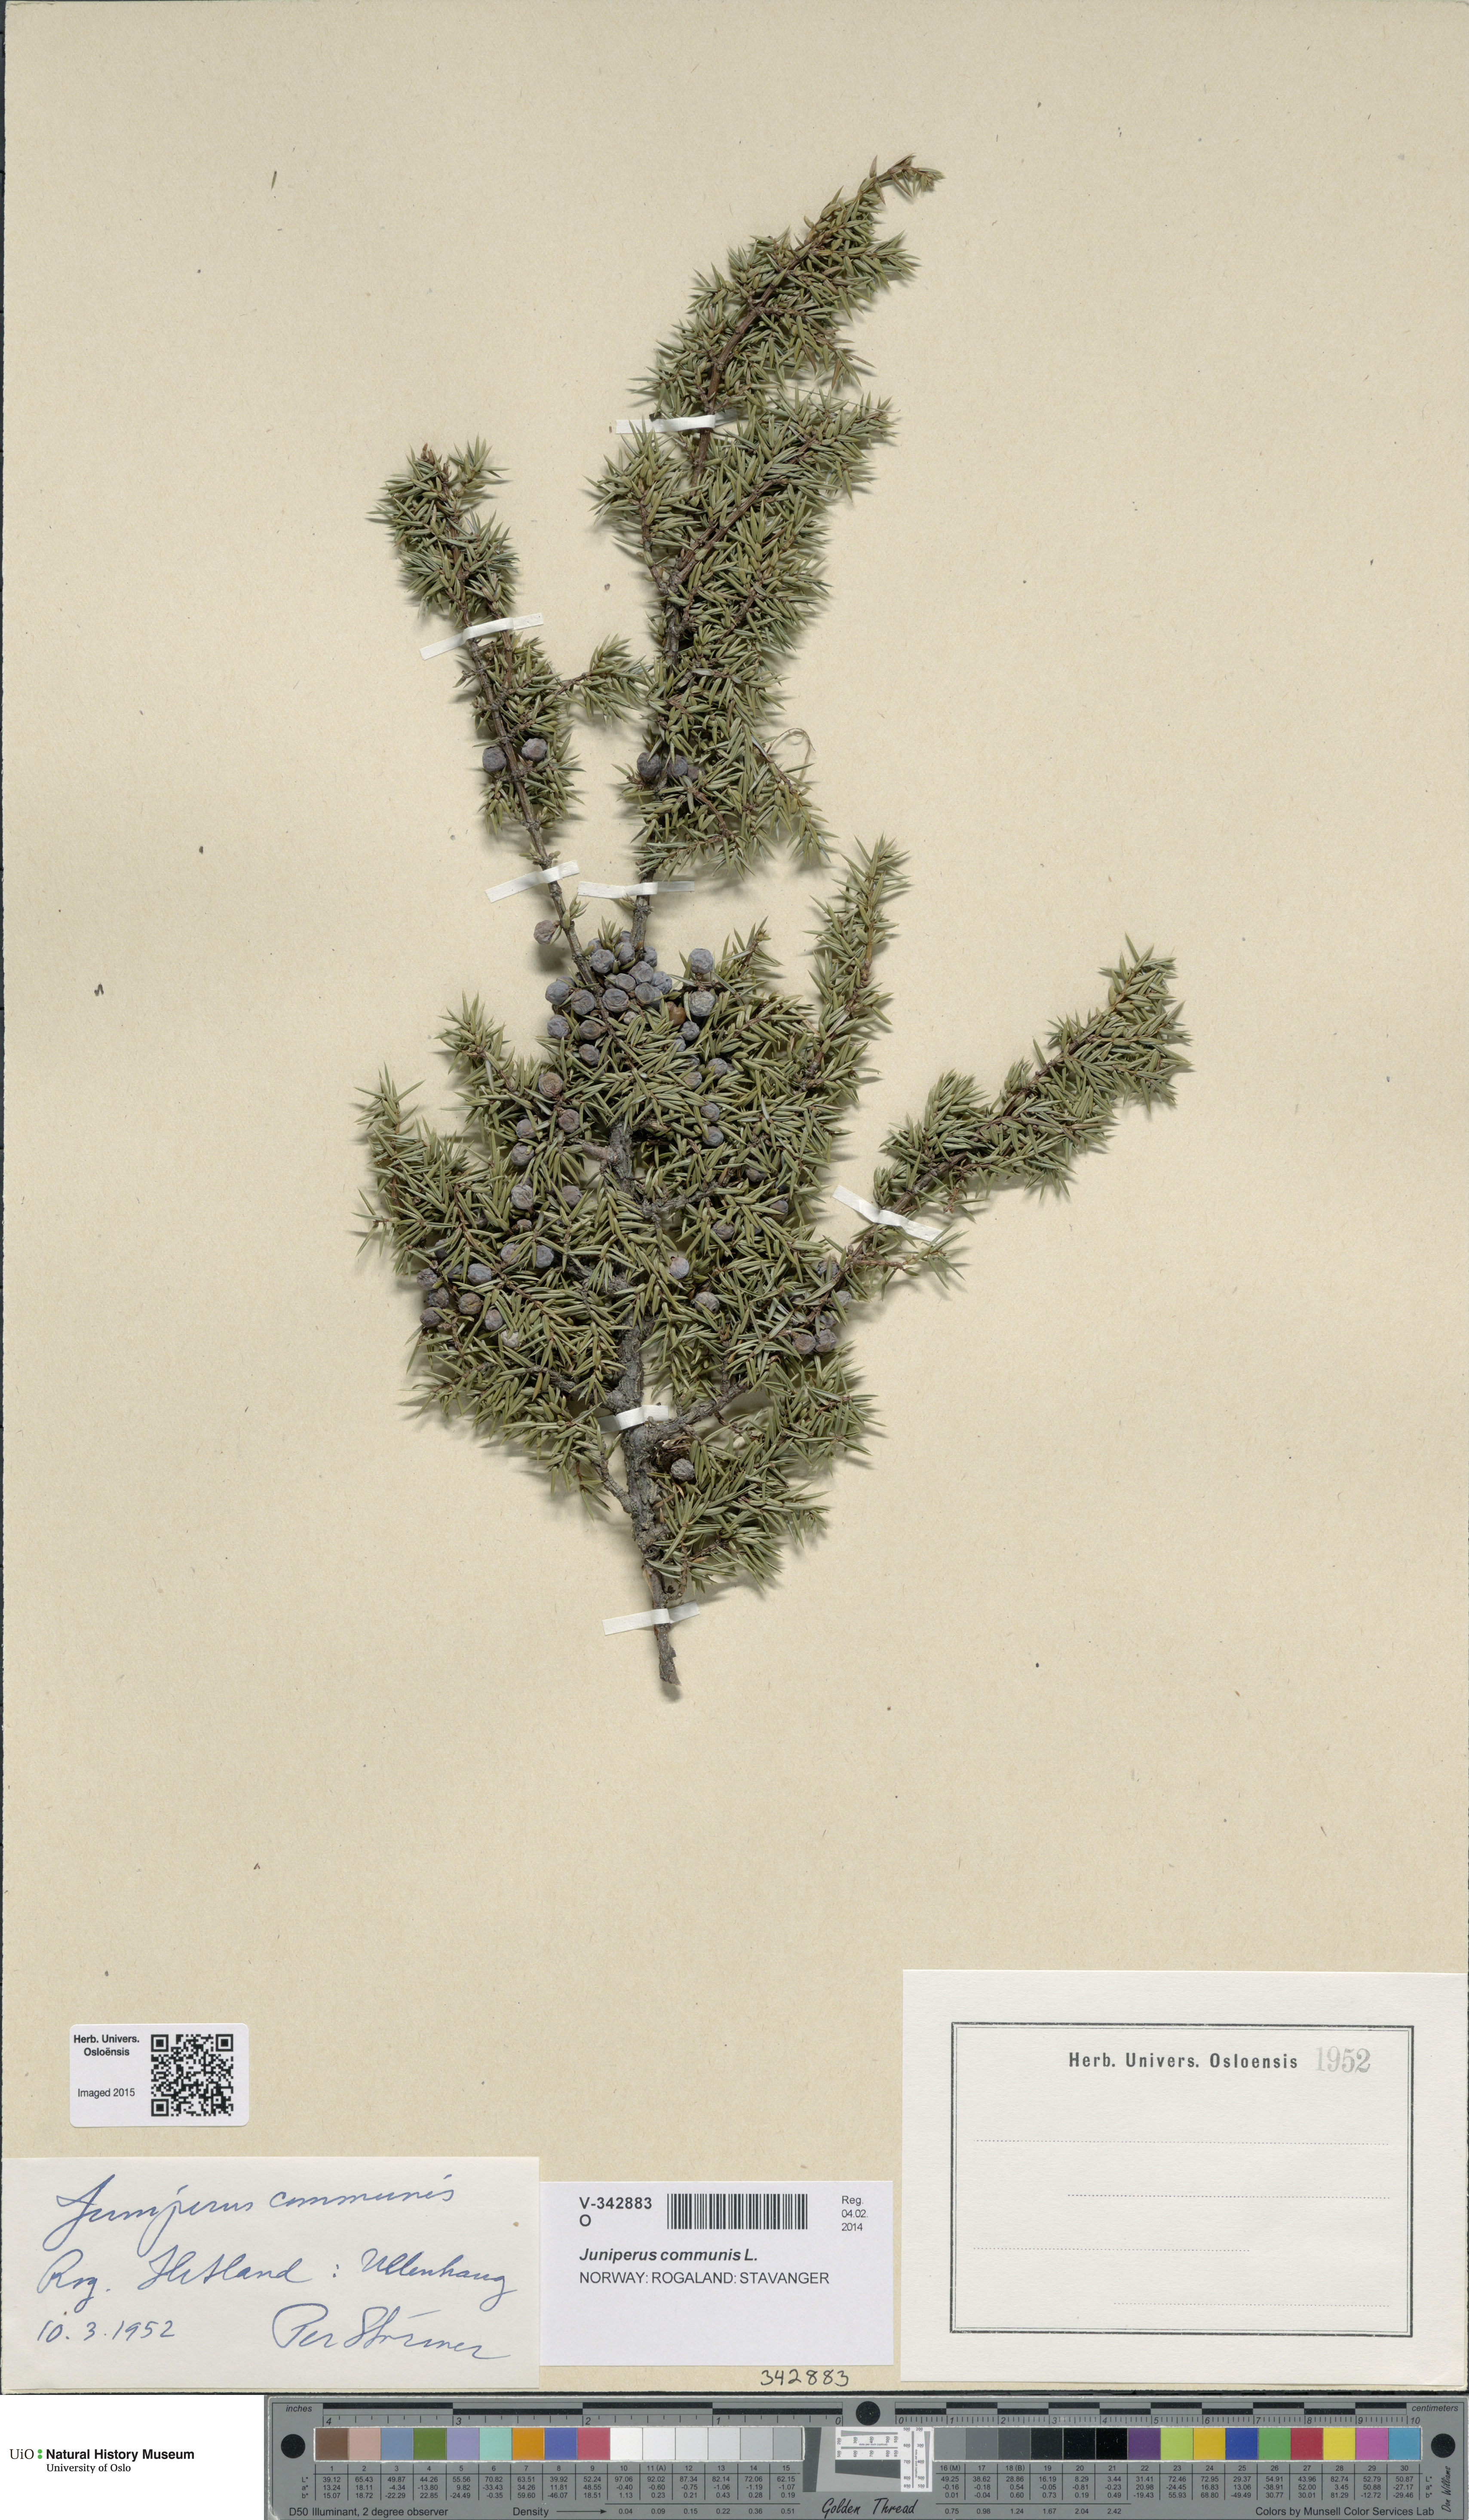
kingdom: Plantae
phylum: Tracheophyta
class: Pinopsida
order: Pinales
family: Cupressaceae
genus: Juniperus
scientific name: Juniperus communis
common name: Common juniper
